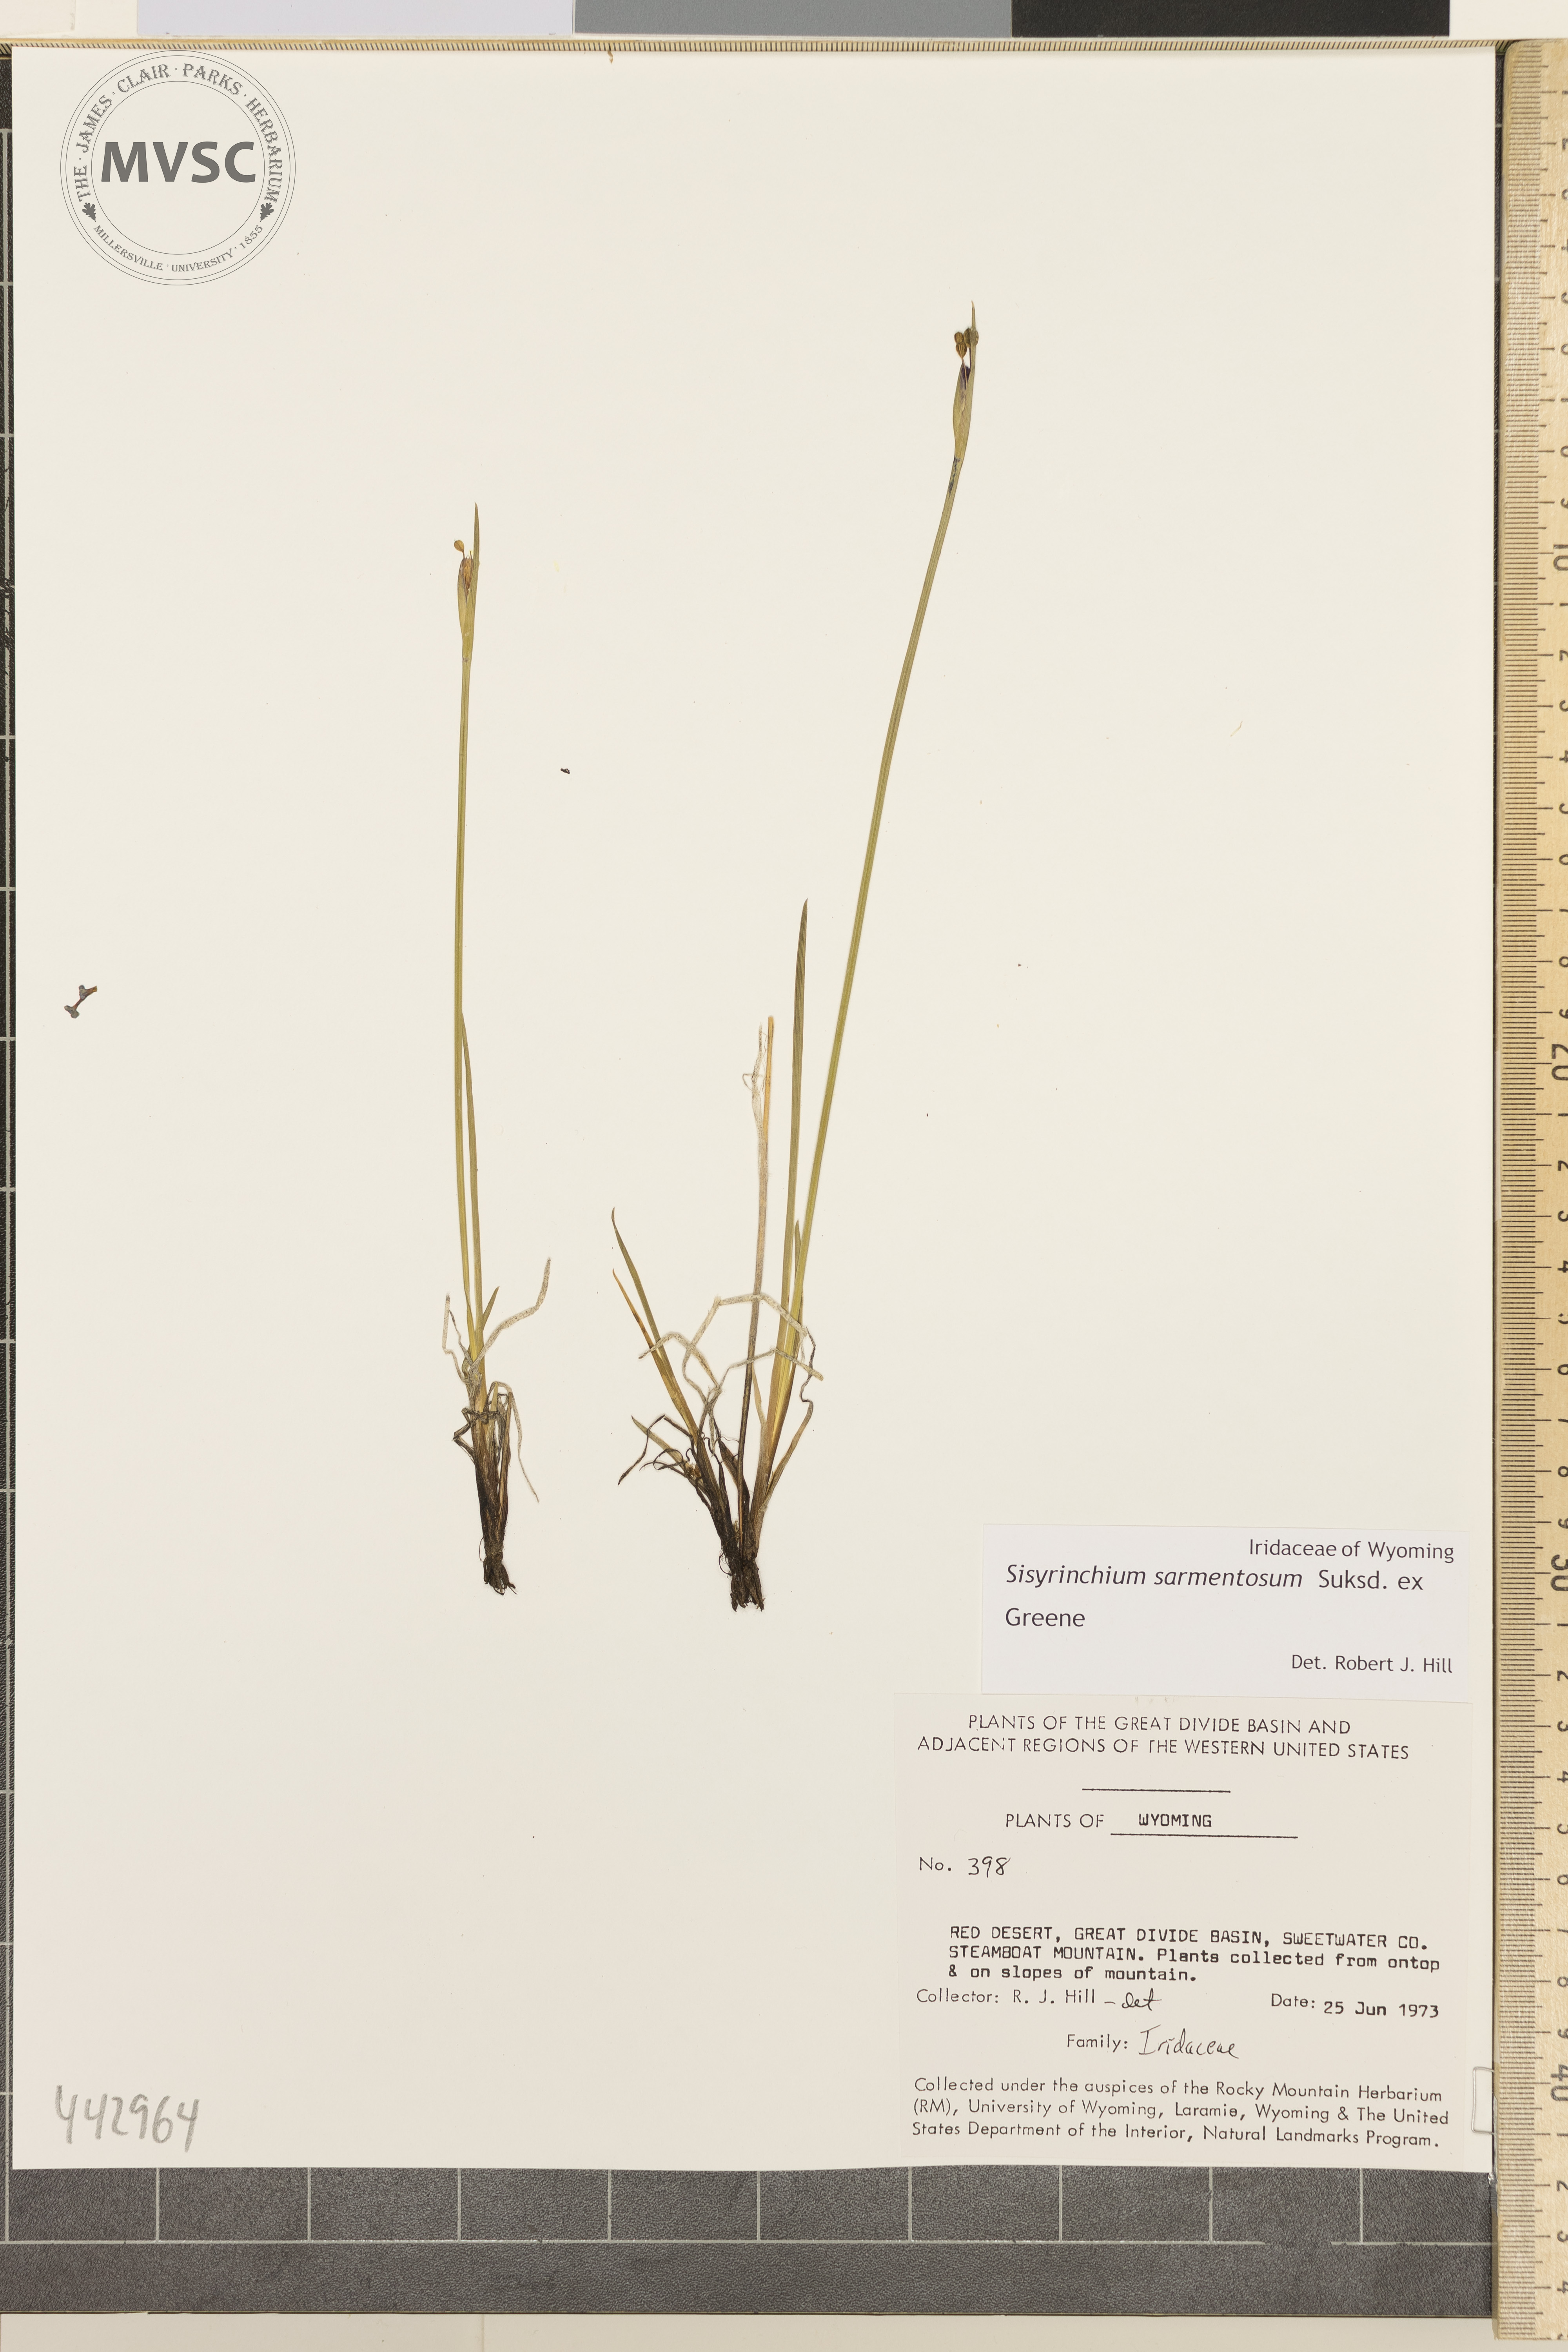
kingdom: Plantae
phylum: Tracheophyta
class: Liliopsida
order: Asparagales
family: Iridaceae
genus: Sisyrinchium
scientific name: Sisyrinchium sarmentosum
